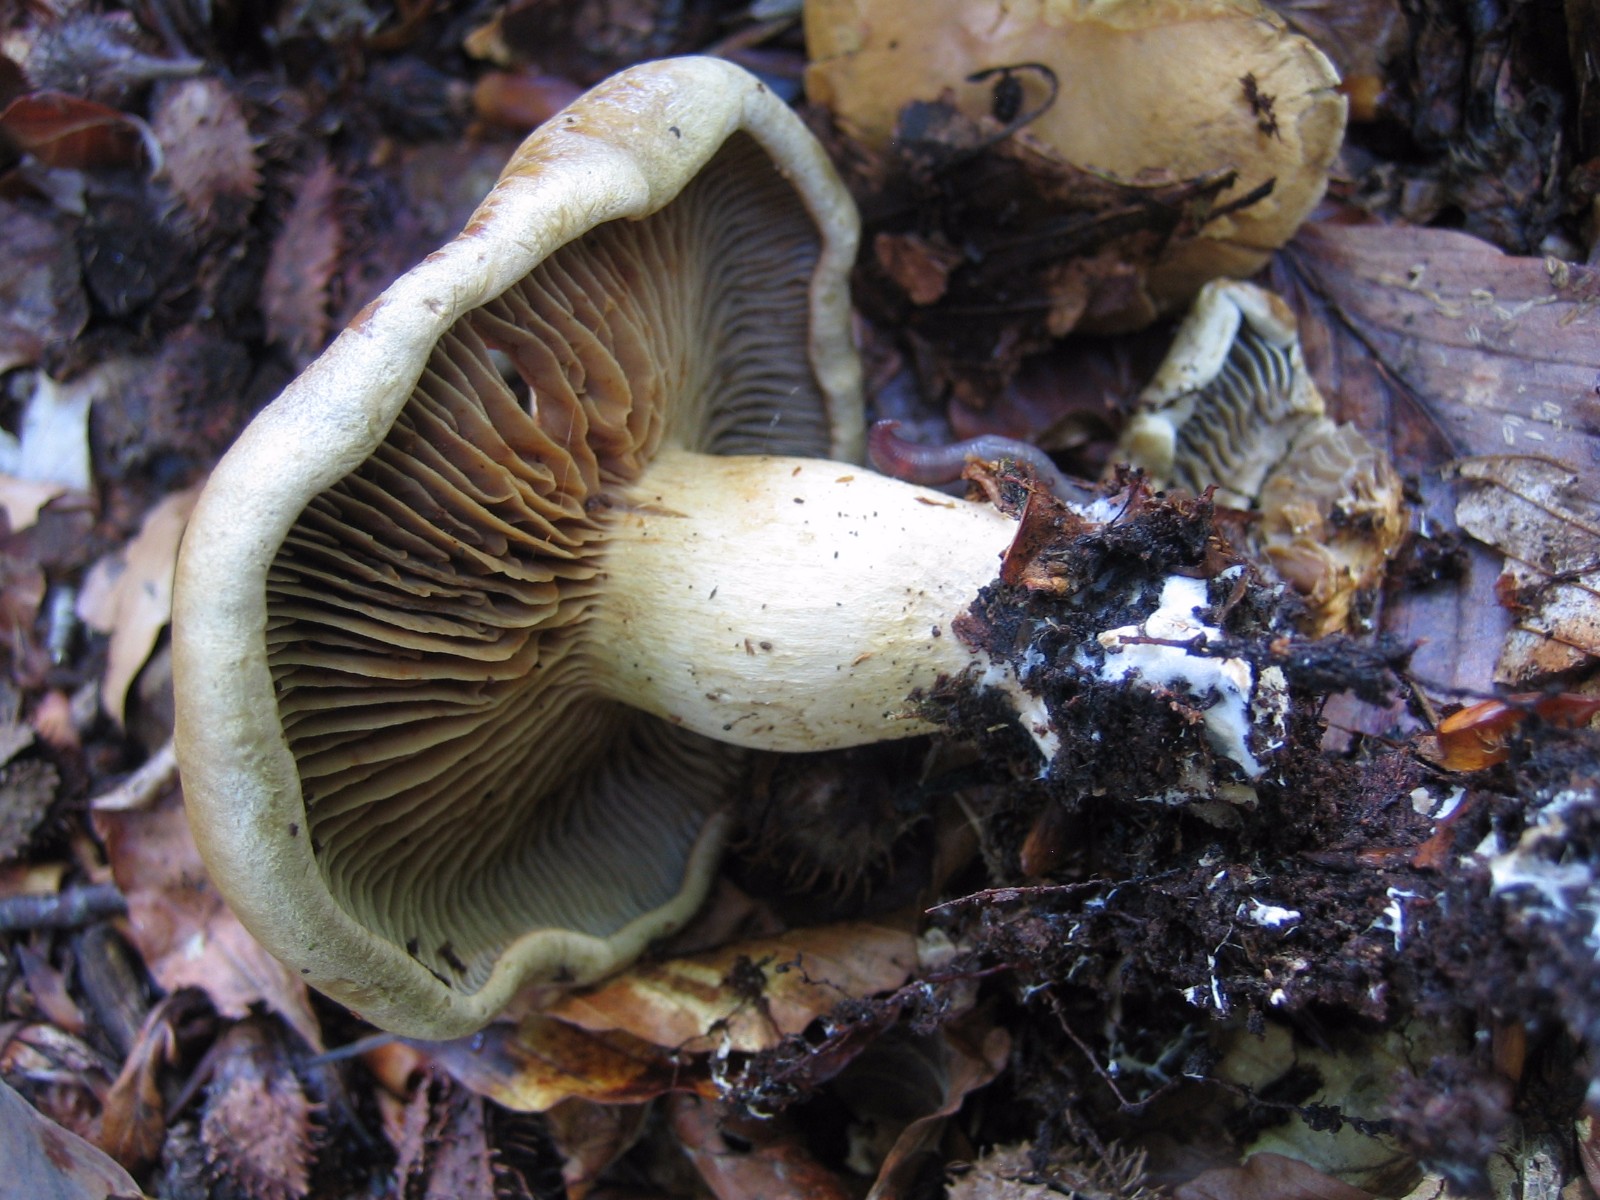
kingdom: Fungi
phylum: Basidiomycota
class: Agaricomycetes
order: Agaricales
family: Cortinariaceae
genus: Cortinarius
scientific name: Cortinarius subtortus
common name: olivengul slørhat
